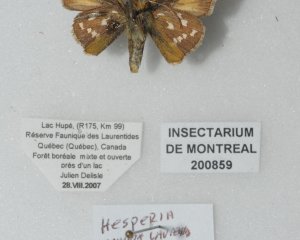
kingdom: Animalia
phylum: Arthropoda
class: Insecta
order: Lepidoptera
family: Hesperiidae
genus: Hesperia
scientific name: Hesperia comma
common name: Common Branded Skipper
